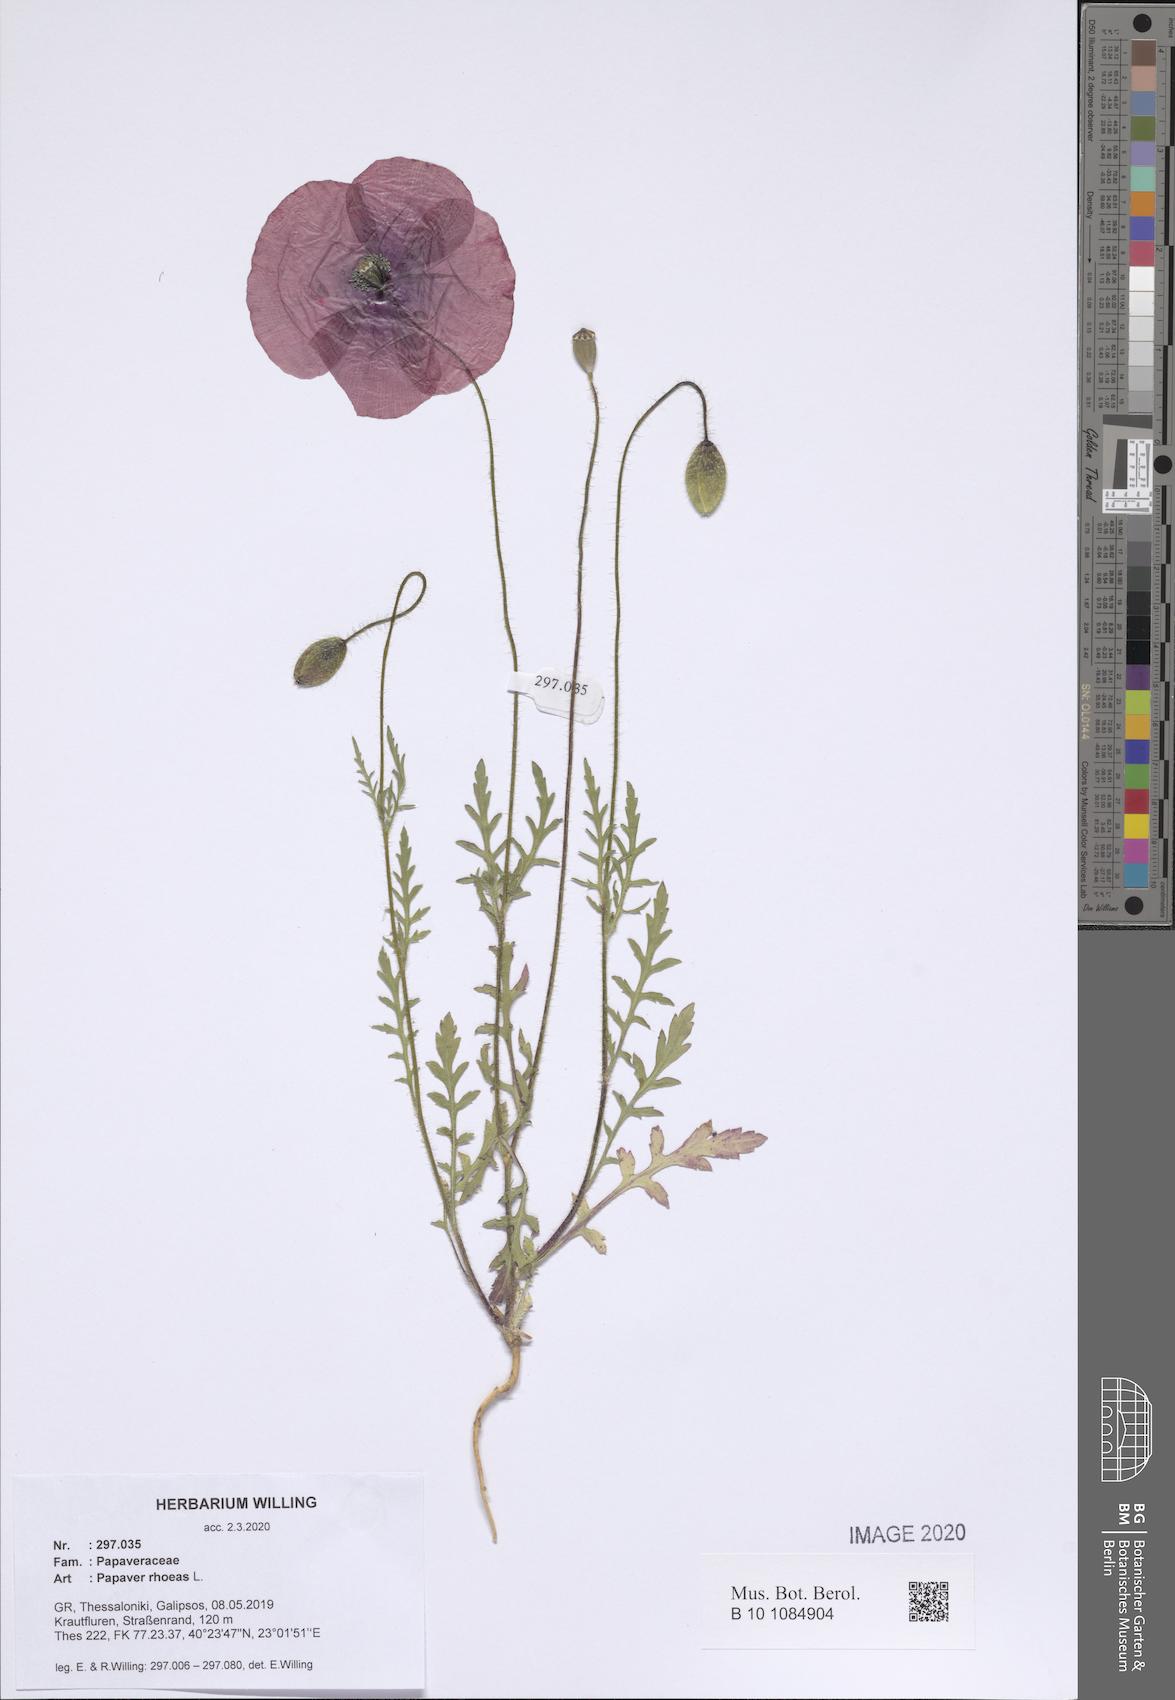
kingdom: Plantae
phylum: Tracheophyta
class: Magnoliopsida
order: Ranunculales
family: Papaveraceae
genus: Papaver
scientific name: Papaver rhoeas
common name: Corn poppy
